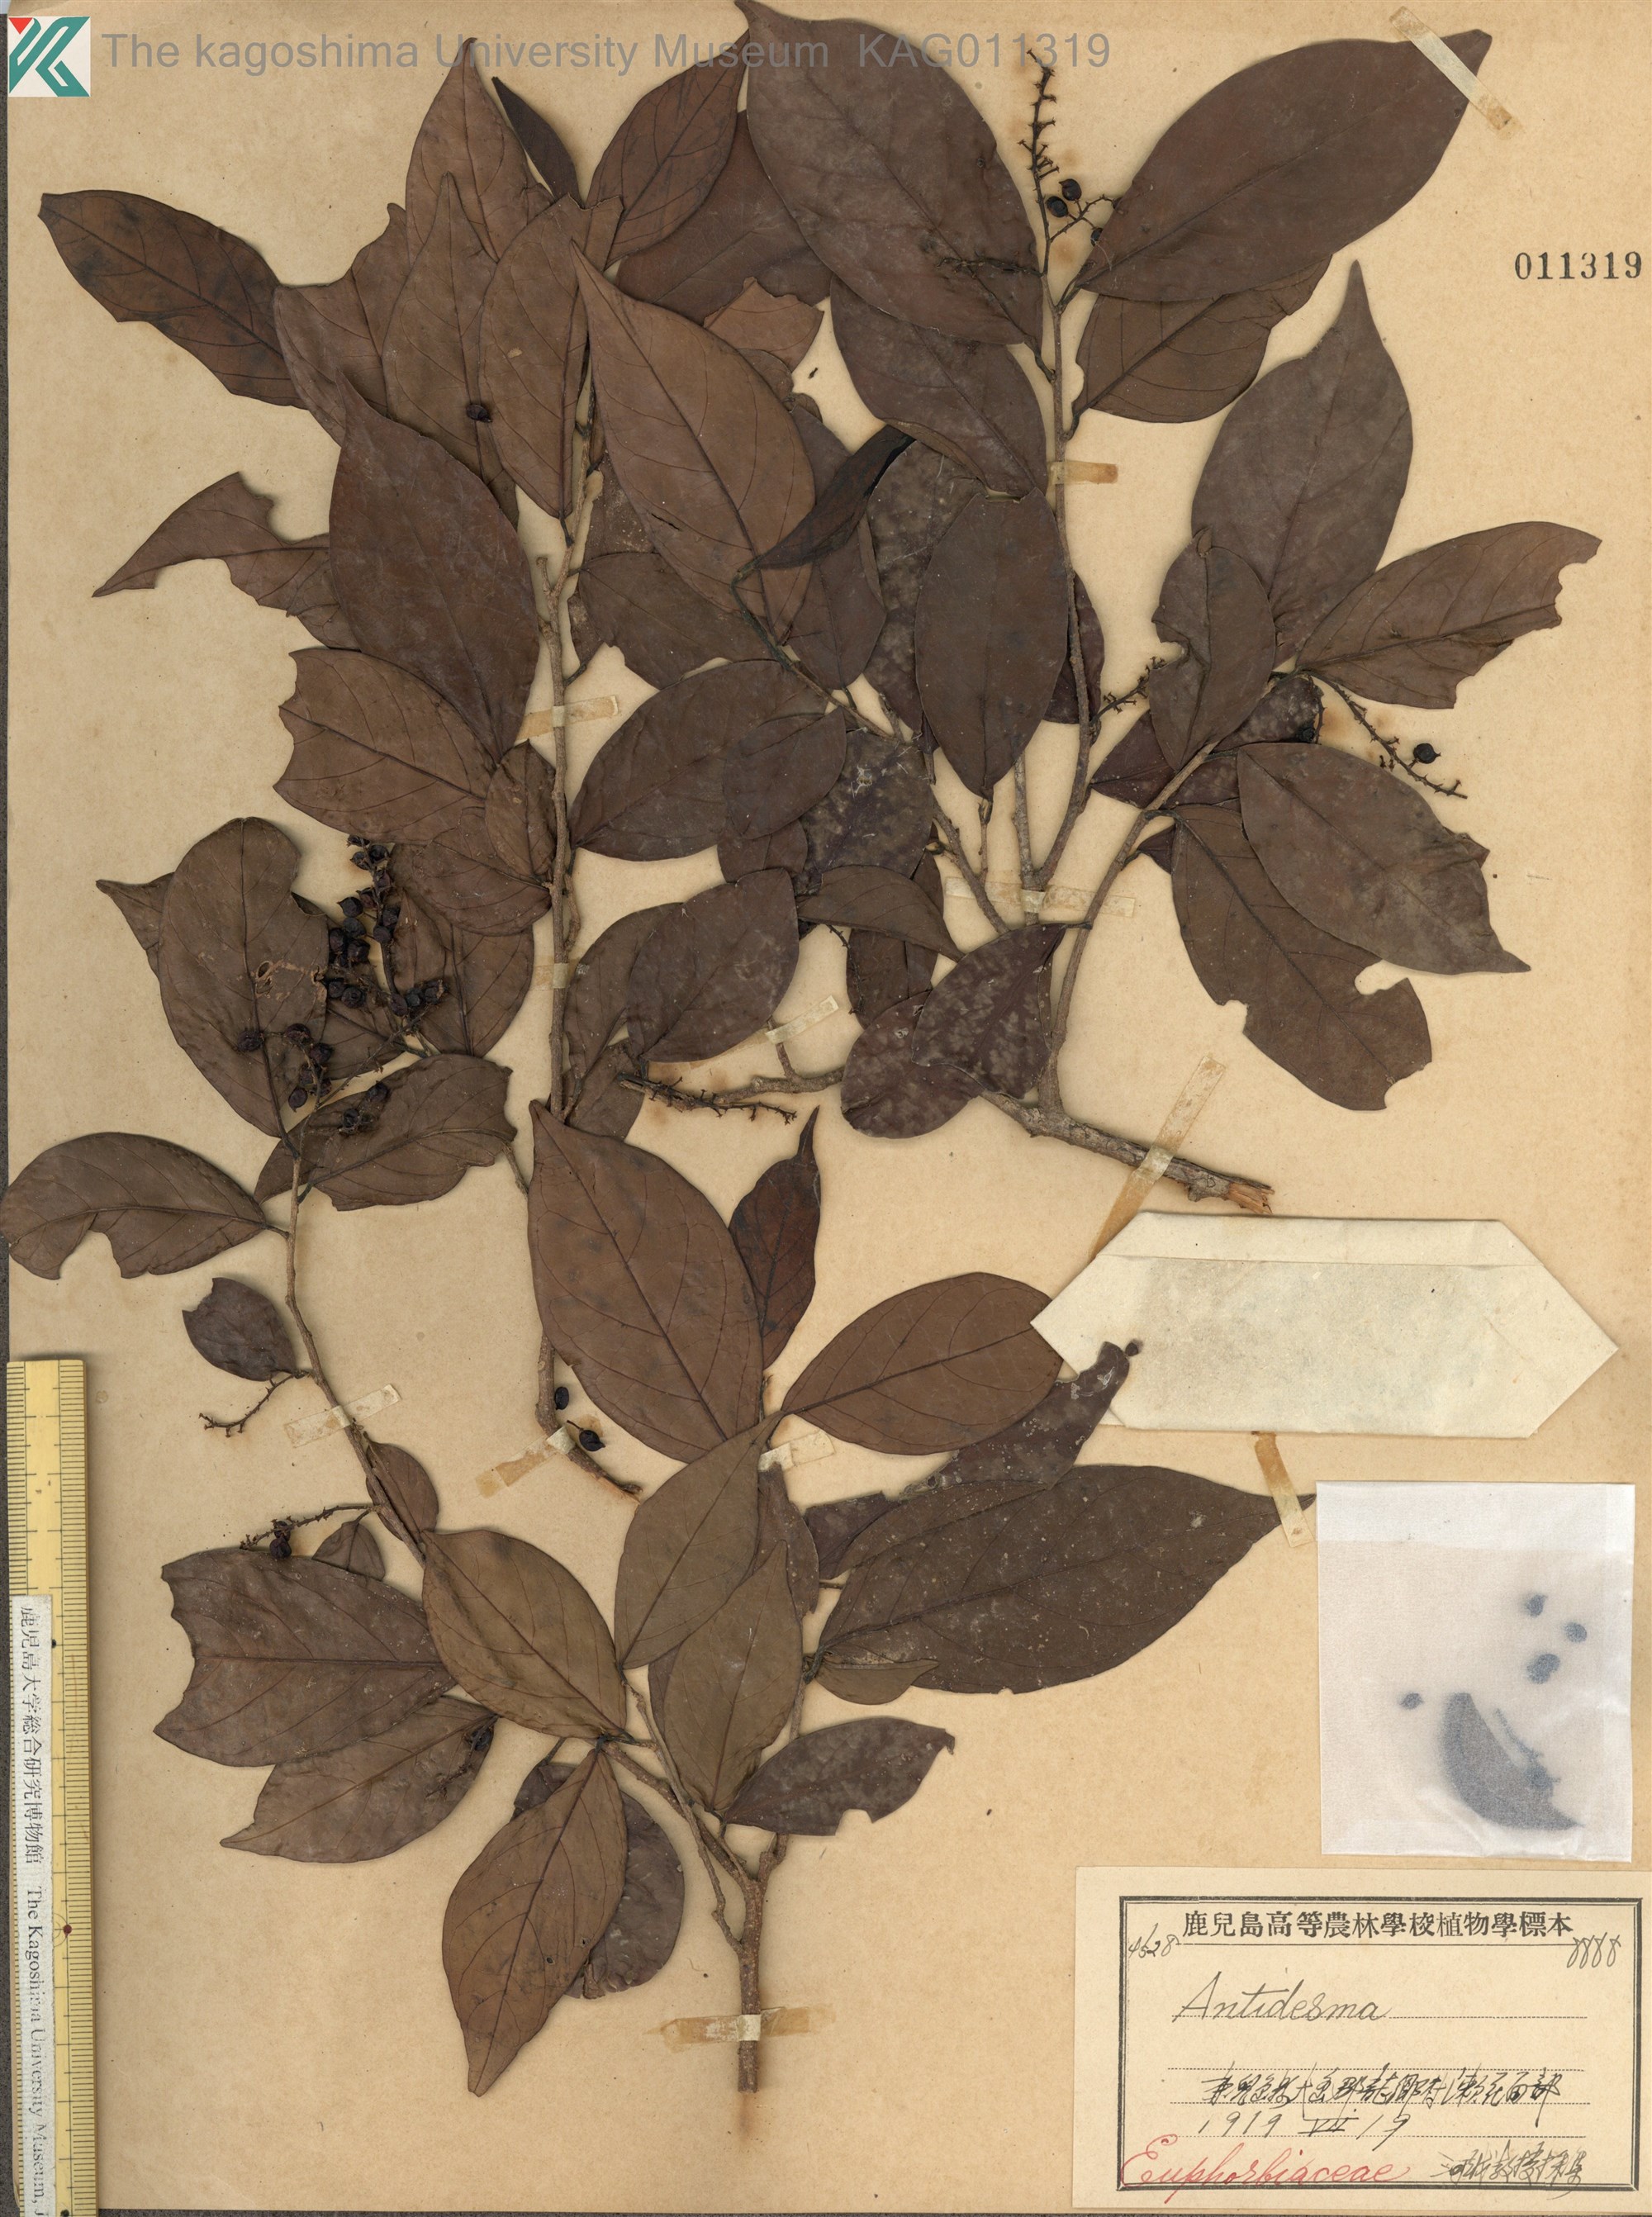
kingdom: Plantae
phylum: Tracheophyta
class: Magnoliopsida
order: Malpighiales
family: Phyllanthaceae
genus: Antidesma
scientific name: Antidesma japonicum
